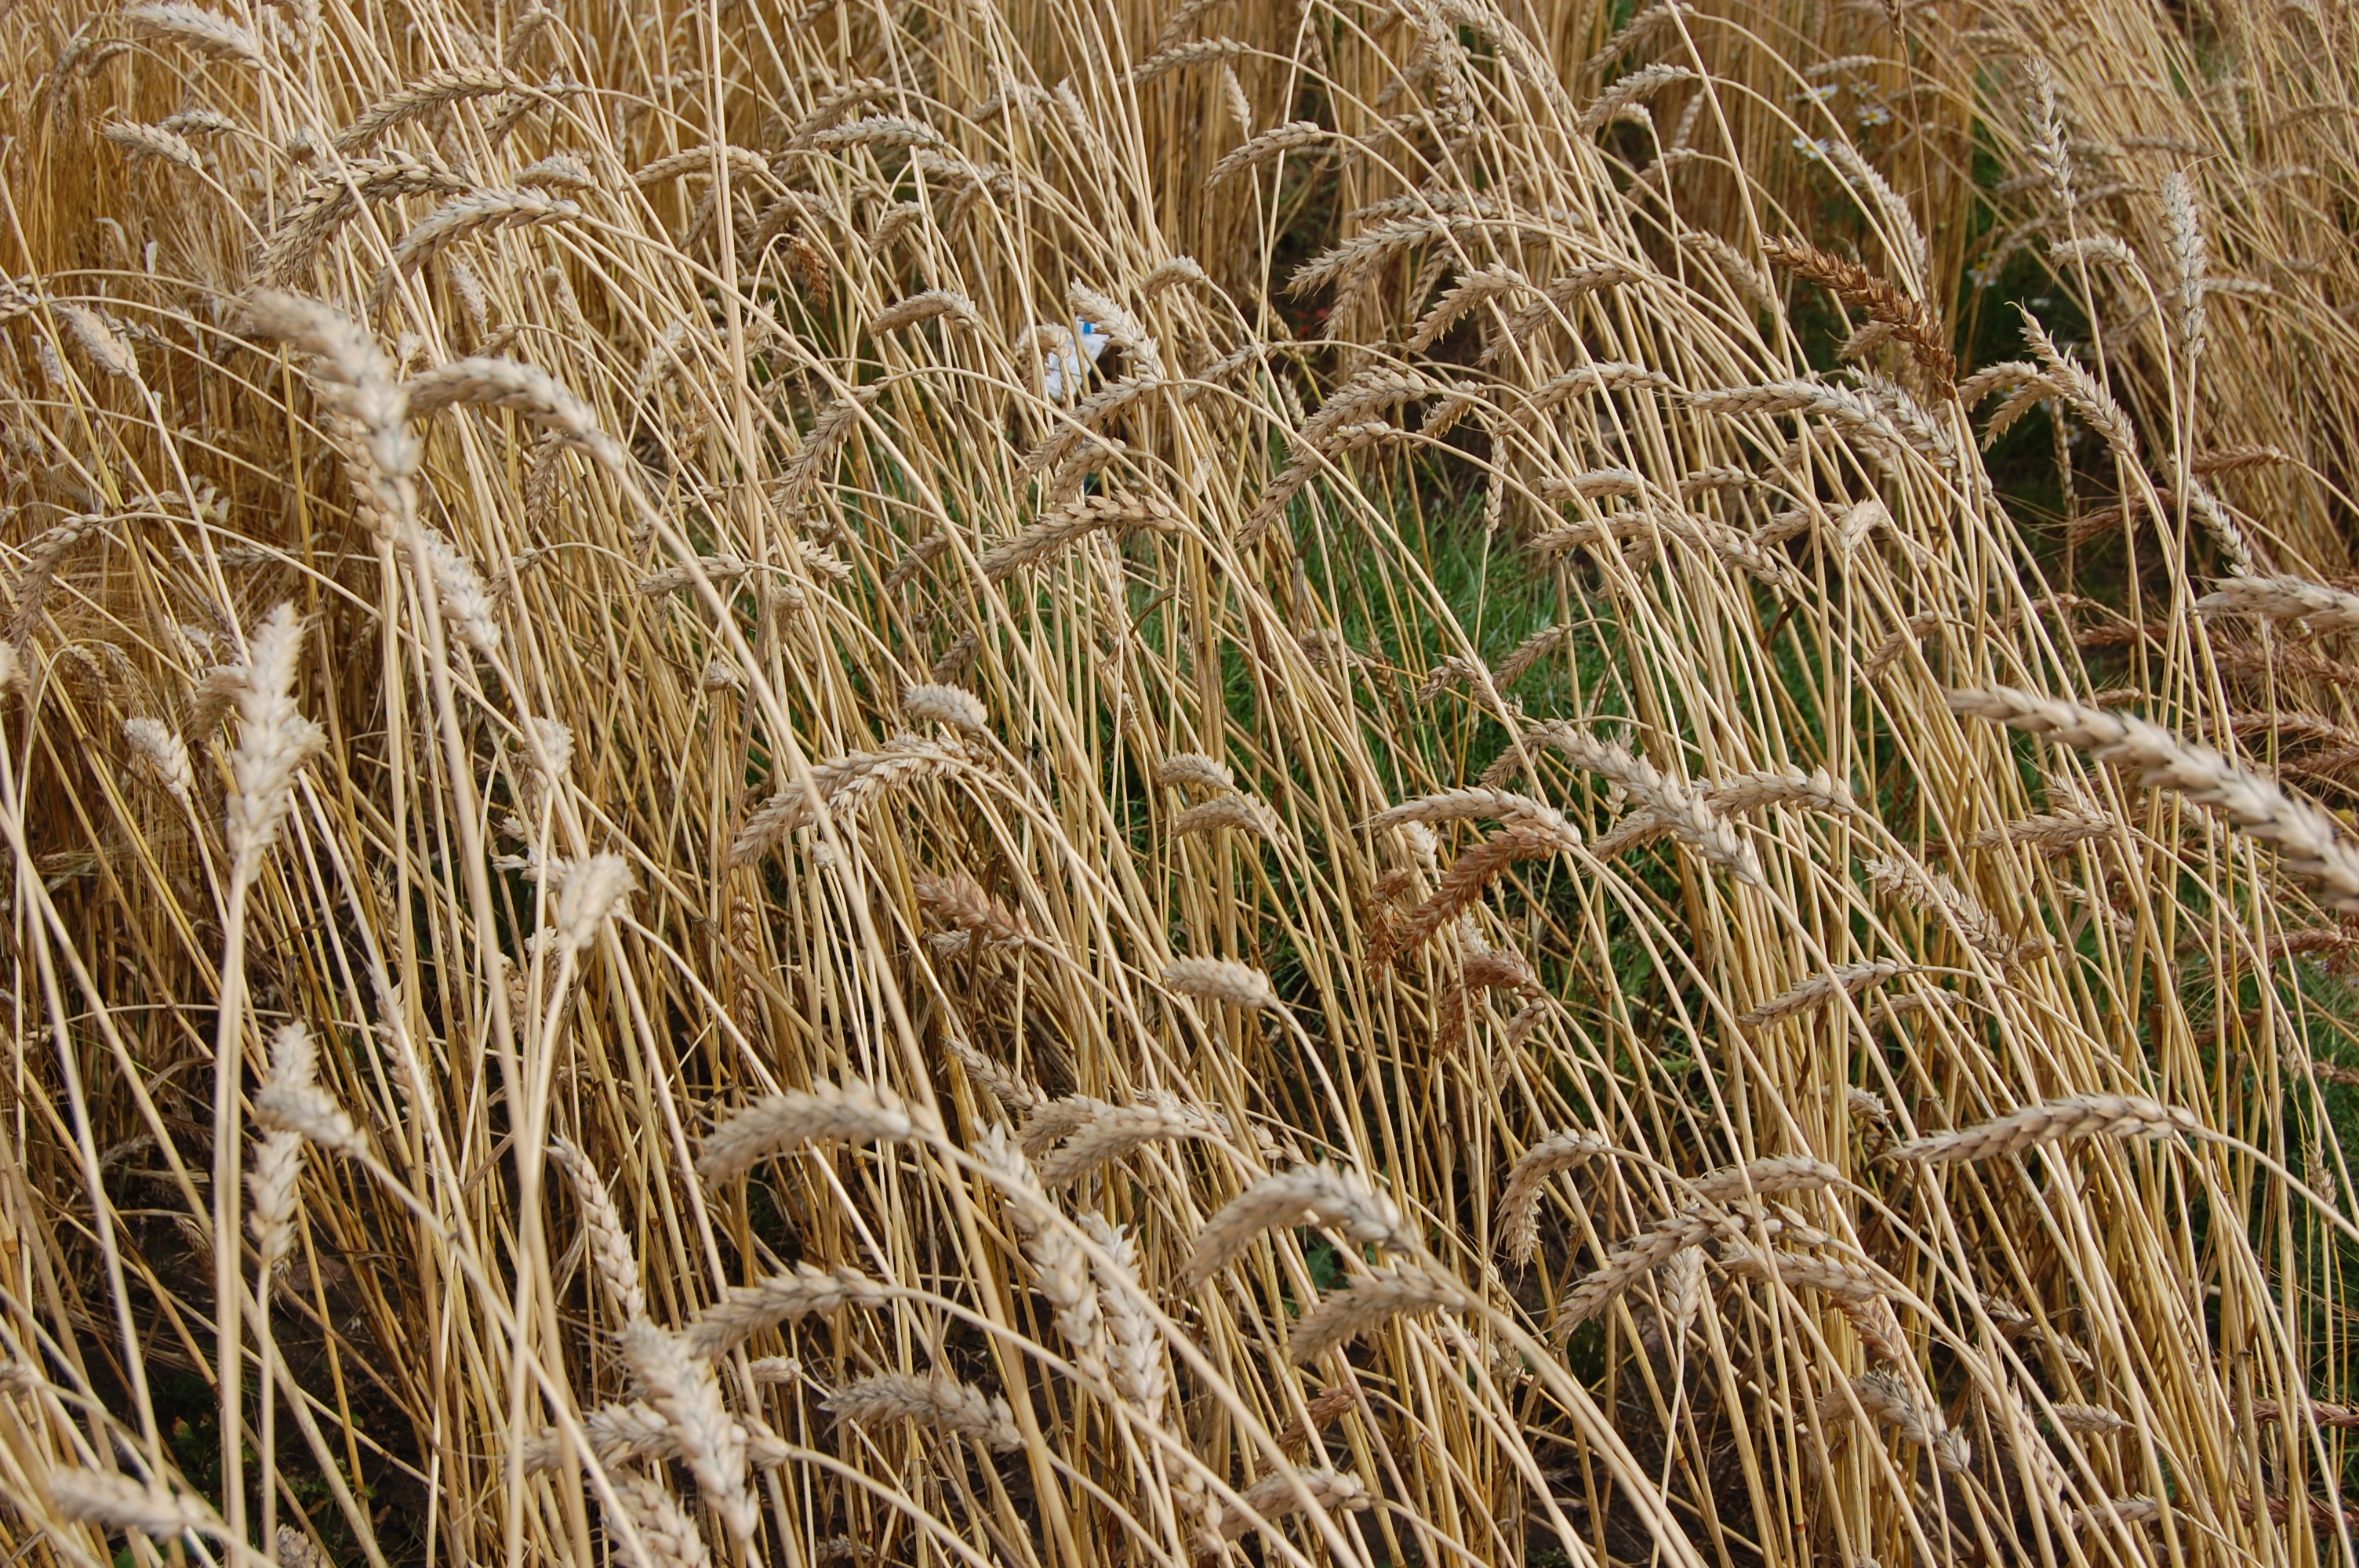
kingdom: Plantae
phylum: Tracheophyta
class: Liliopsida
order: Poales
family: Poaceae
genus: Triticum
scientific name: Triticum aestivum
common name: Common wheat
